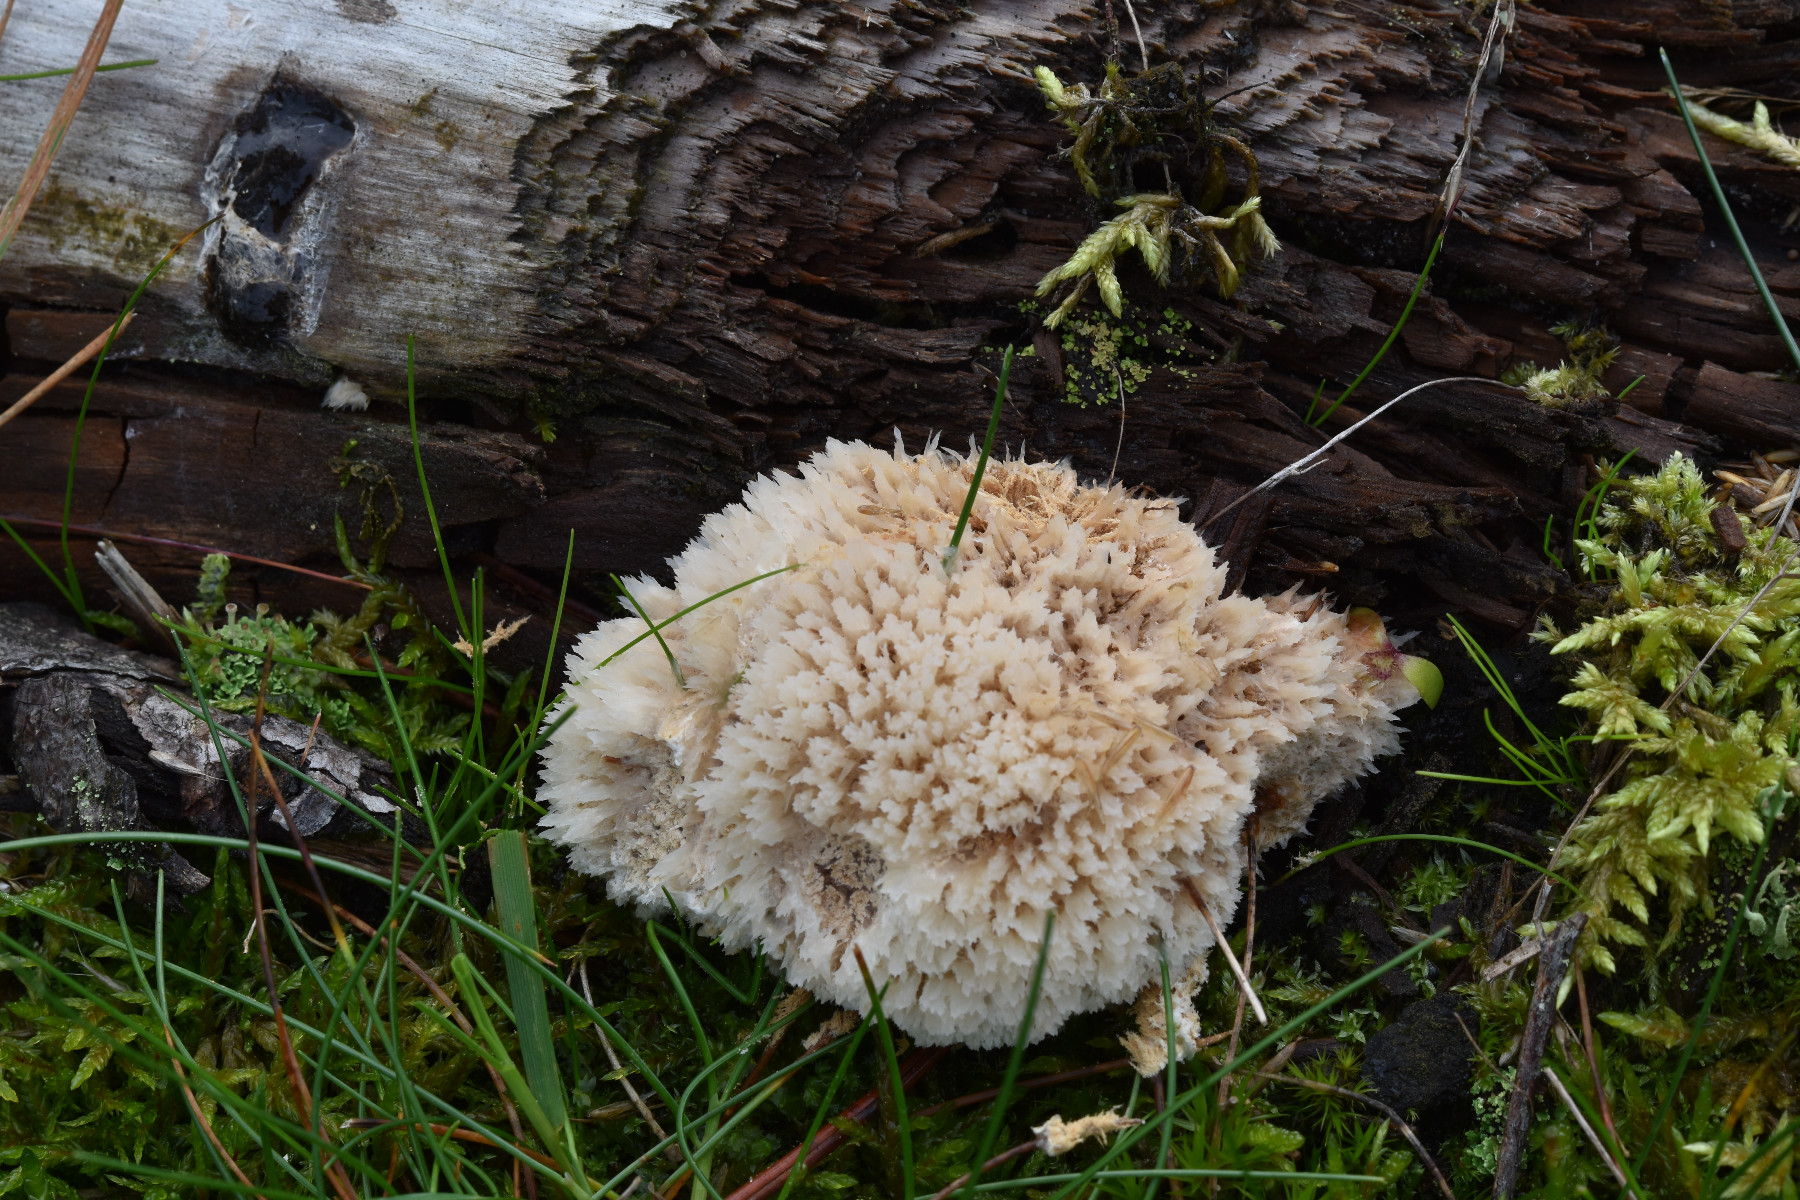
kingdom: Fungi
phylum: Basidiomycota
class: Agaricomycetes
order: Polyporales
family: Dacryobolaceae
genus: Postia
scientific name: Postia ptychogaster
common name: støvende kødporesvamp
